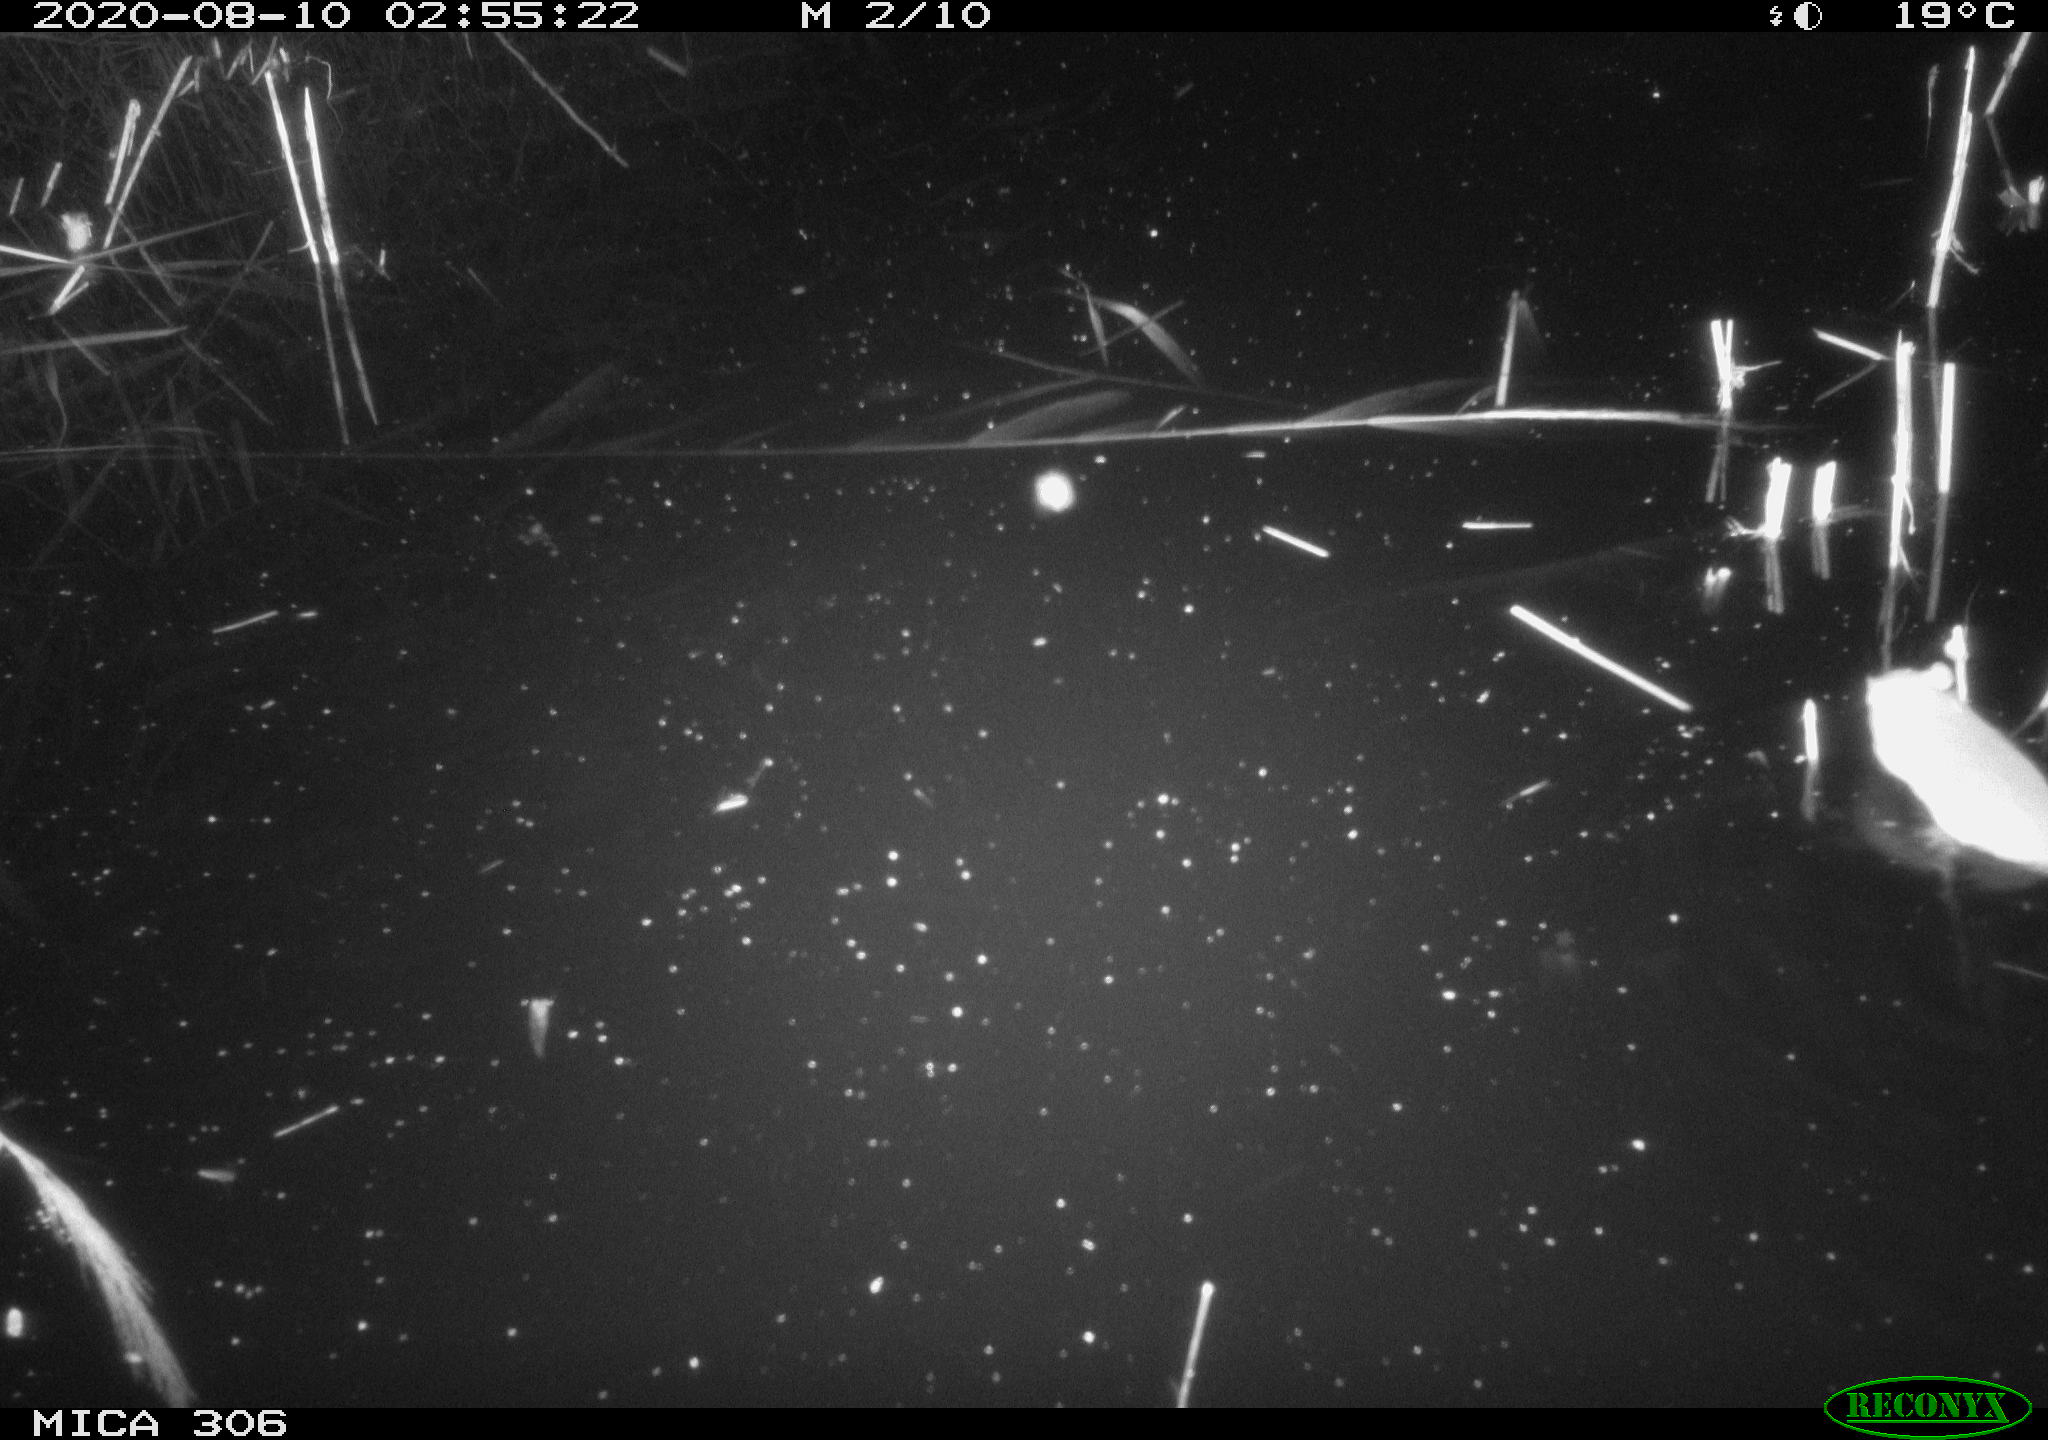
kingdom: Animalia
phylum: Chordata
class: Mammalia
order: Rodentia
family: Muridae
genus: Rattus
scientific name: Rattus norvegicus
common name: Brown rat
